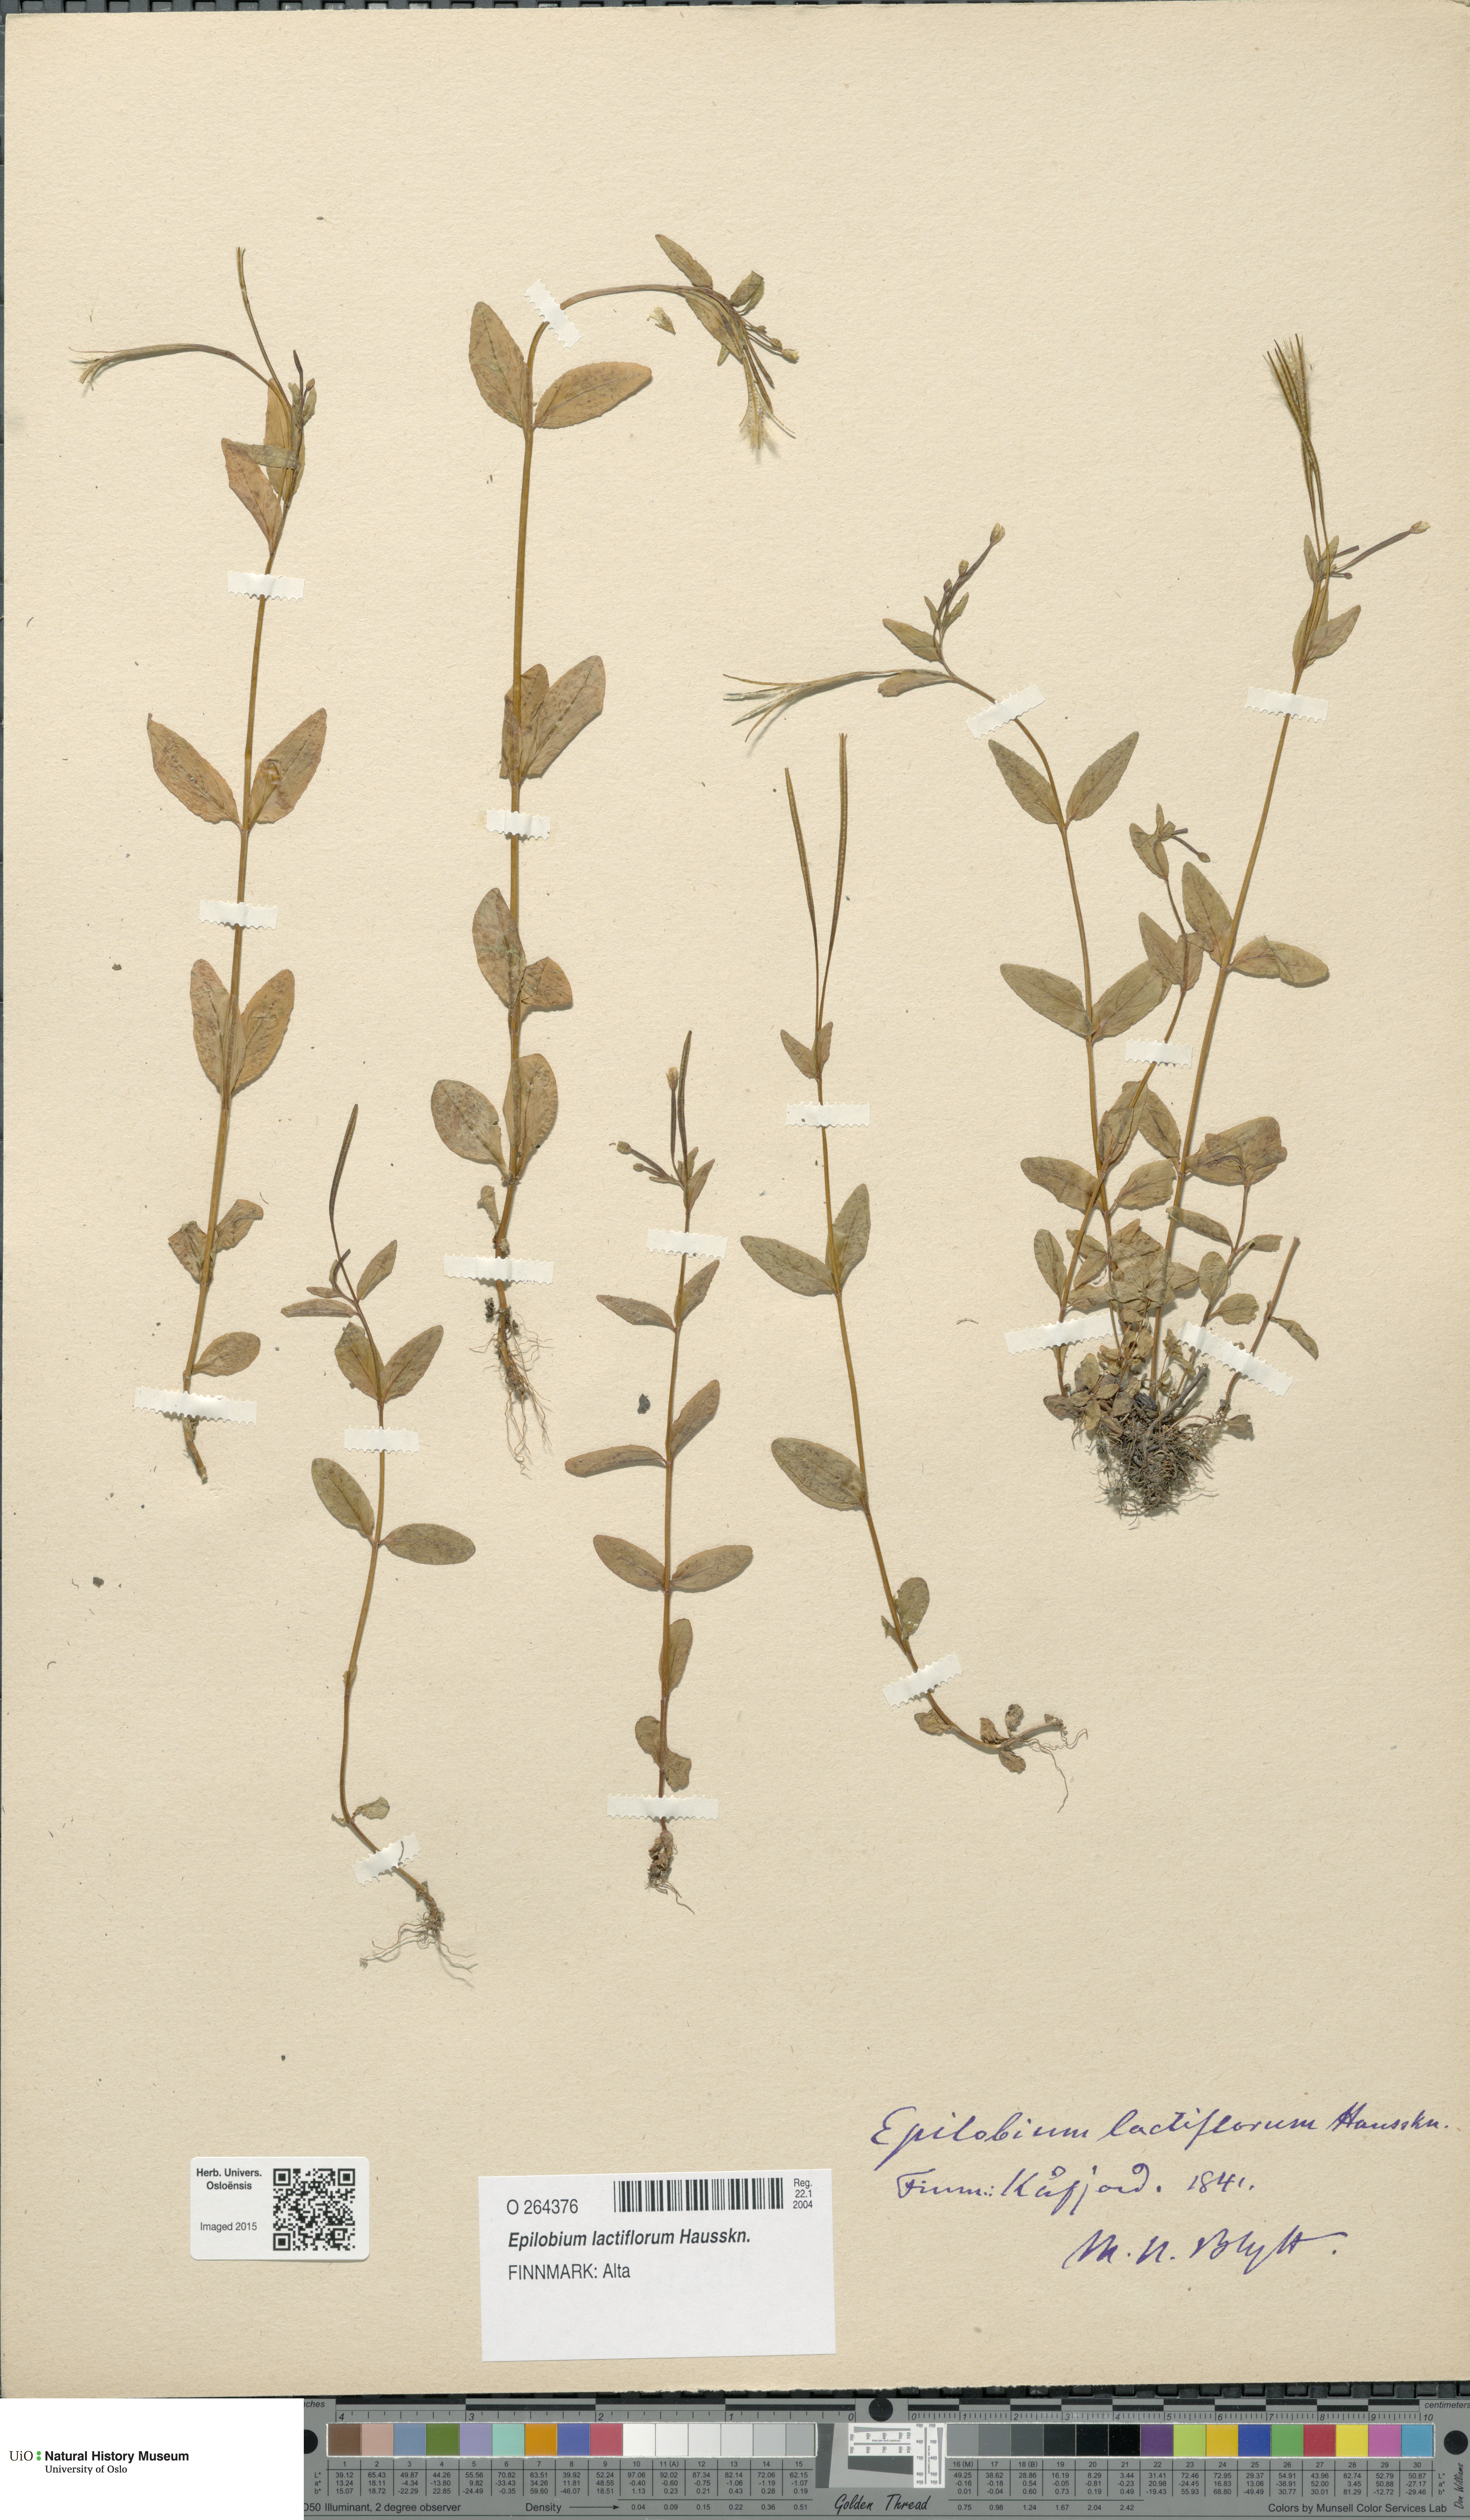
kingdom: Plantae
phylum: Tracheophyta
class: Magnoliopsida
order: Myrtales
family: Onagraceae
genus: Epilobium
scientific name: Epilobium lactiflorum
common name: Milkflower willowherb
